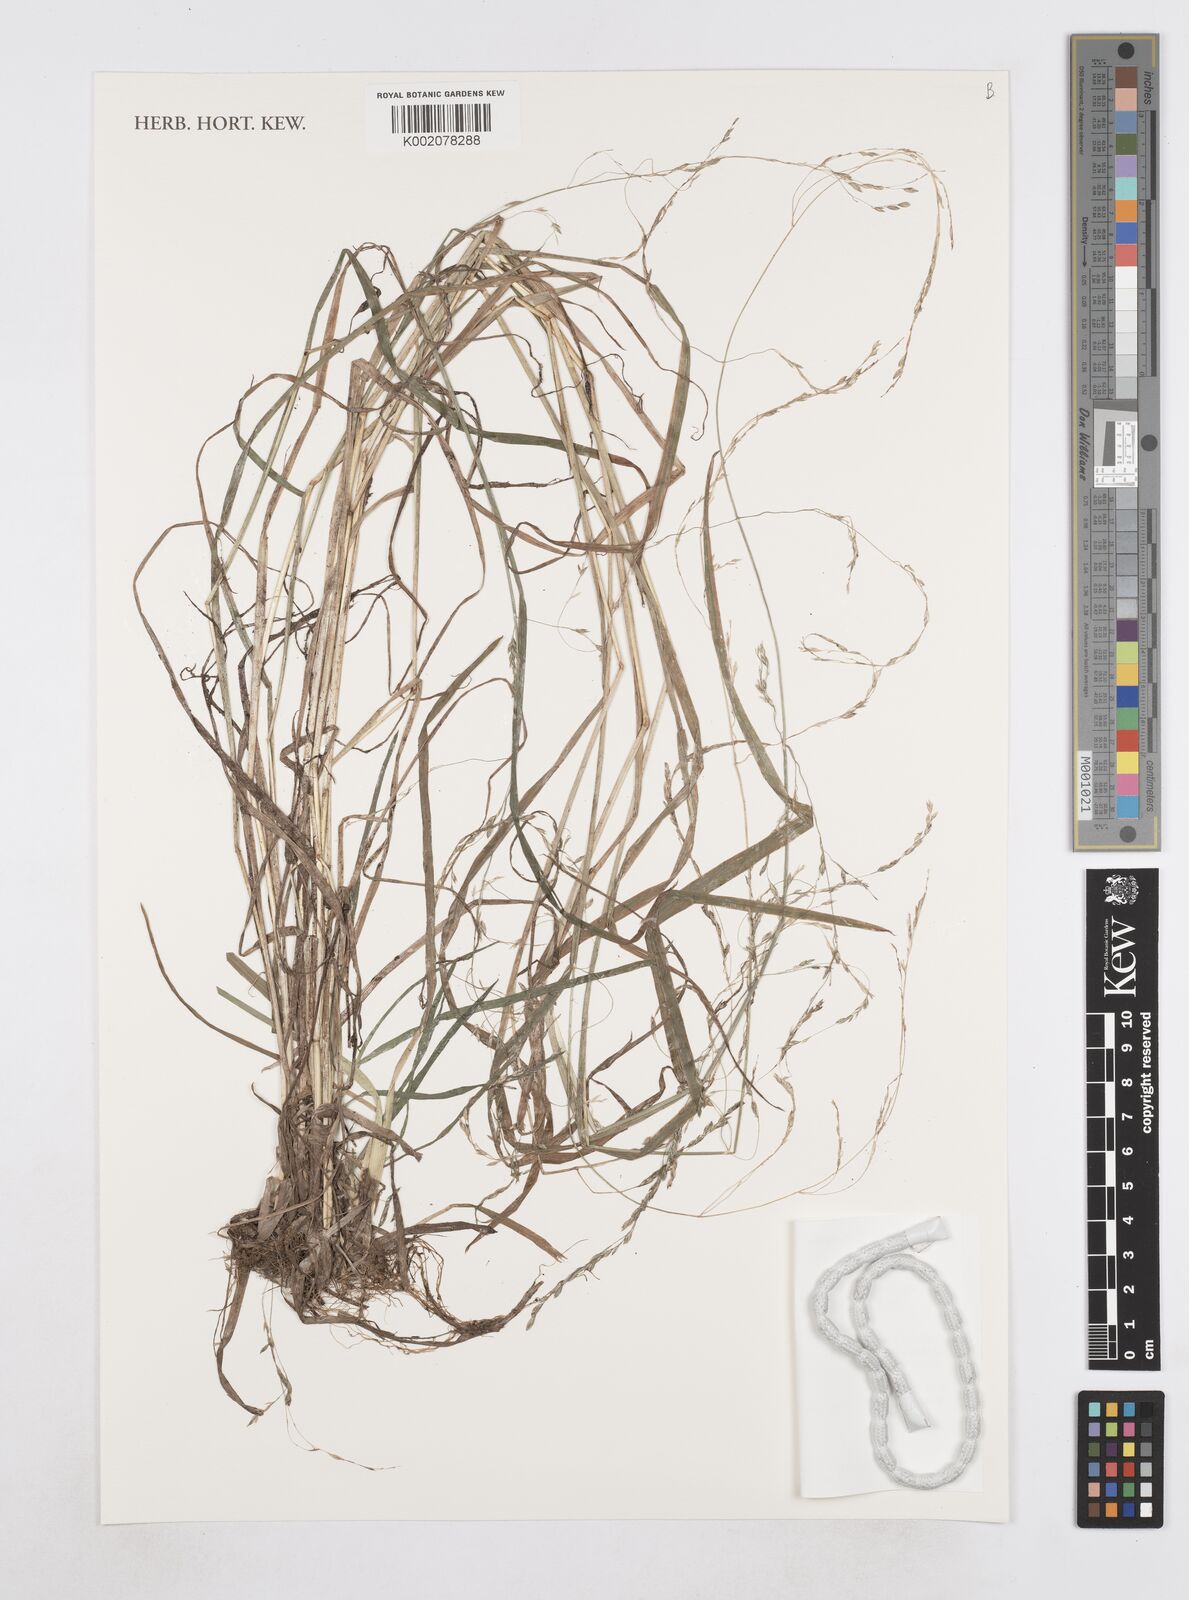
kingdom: Plantae
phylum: Tracheophyta
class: Liliopsida
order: Poales
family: Poaceae
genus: Poa
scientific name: Poa occidentalis
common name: New mexican bluegrass
